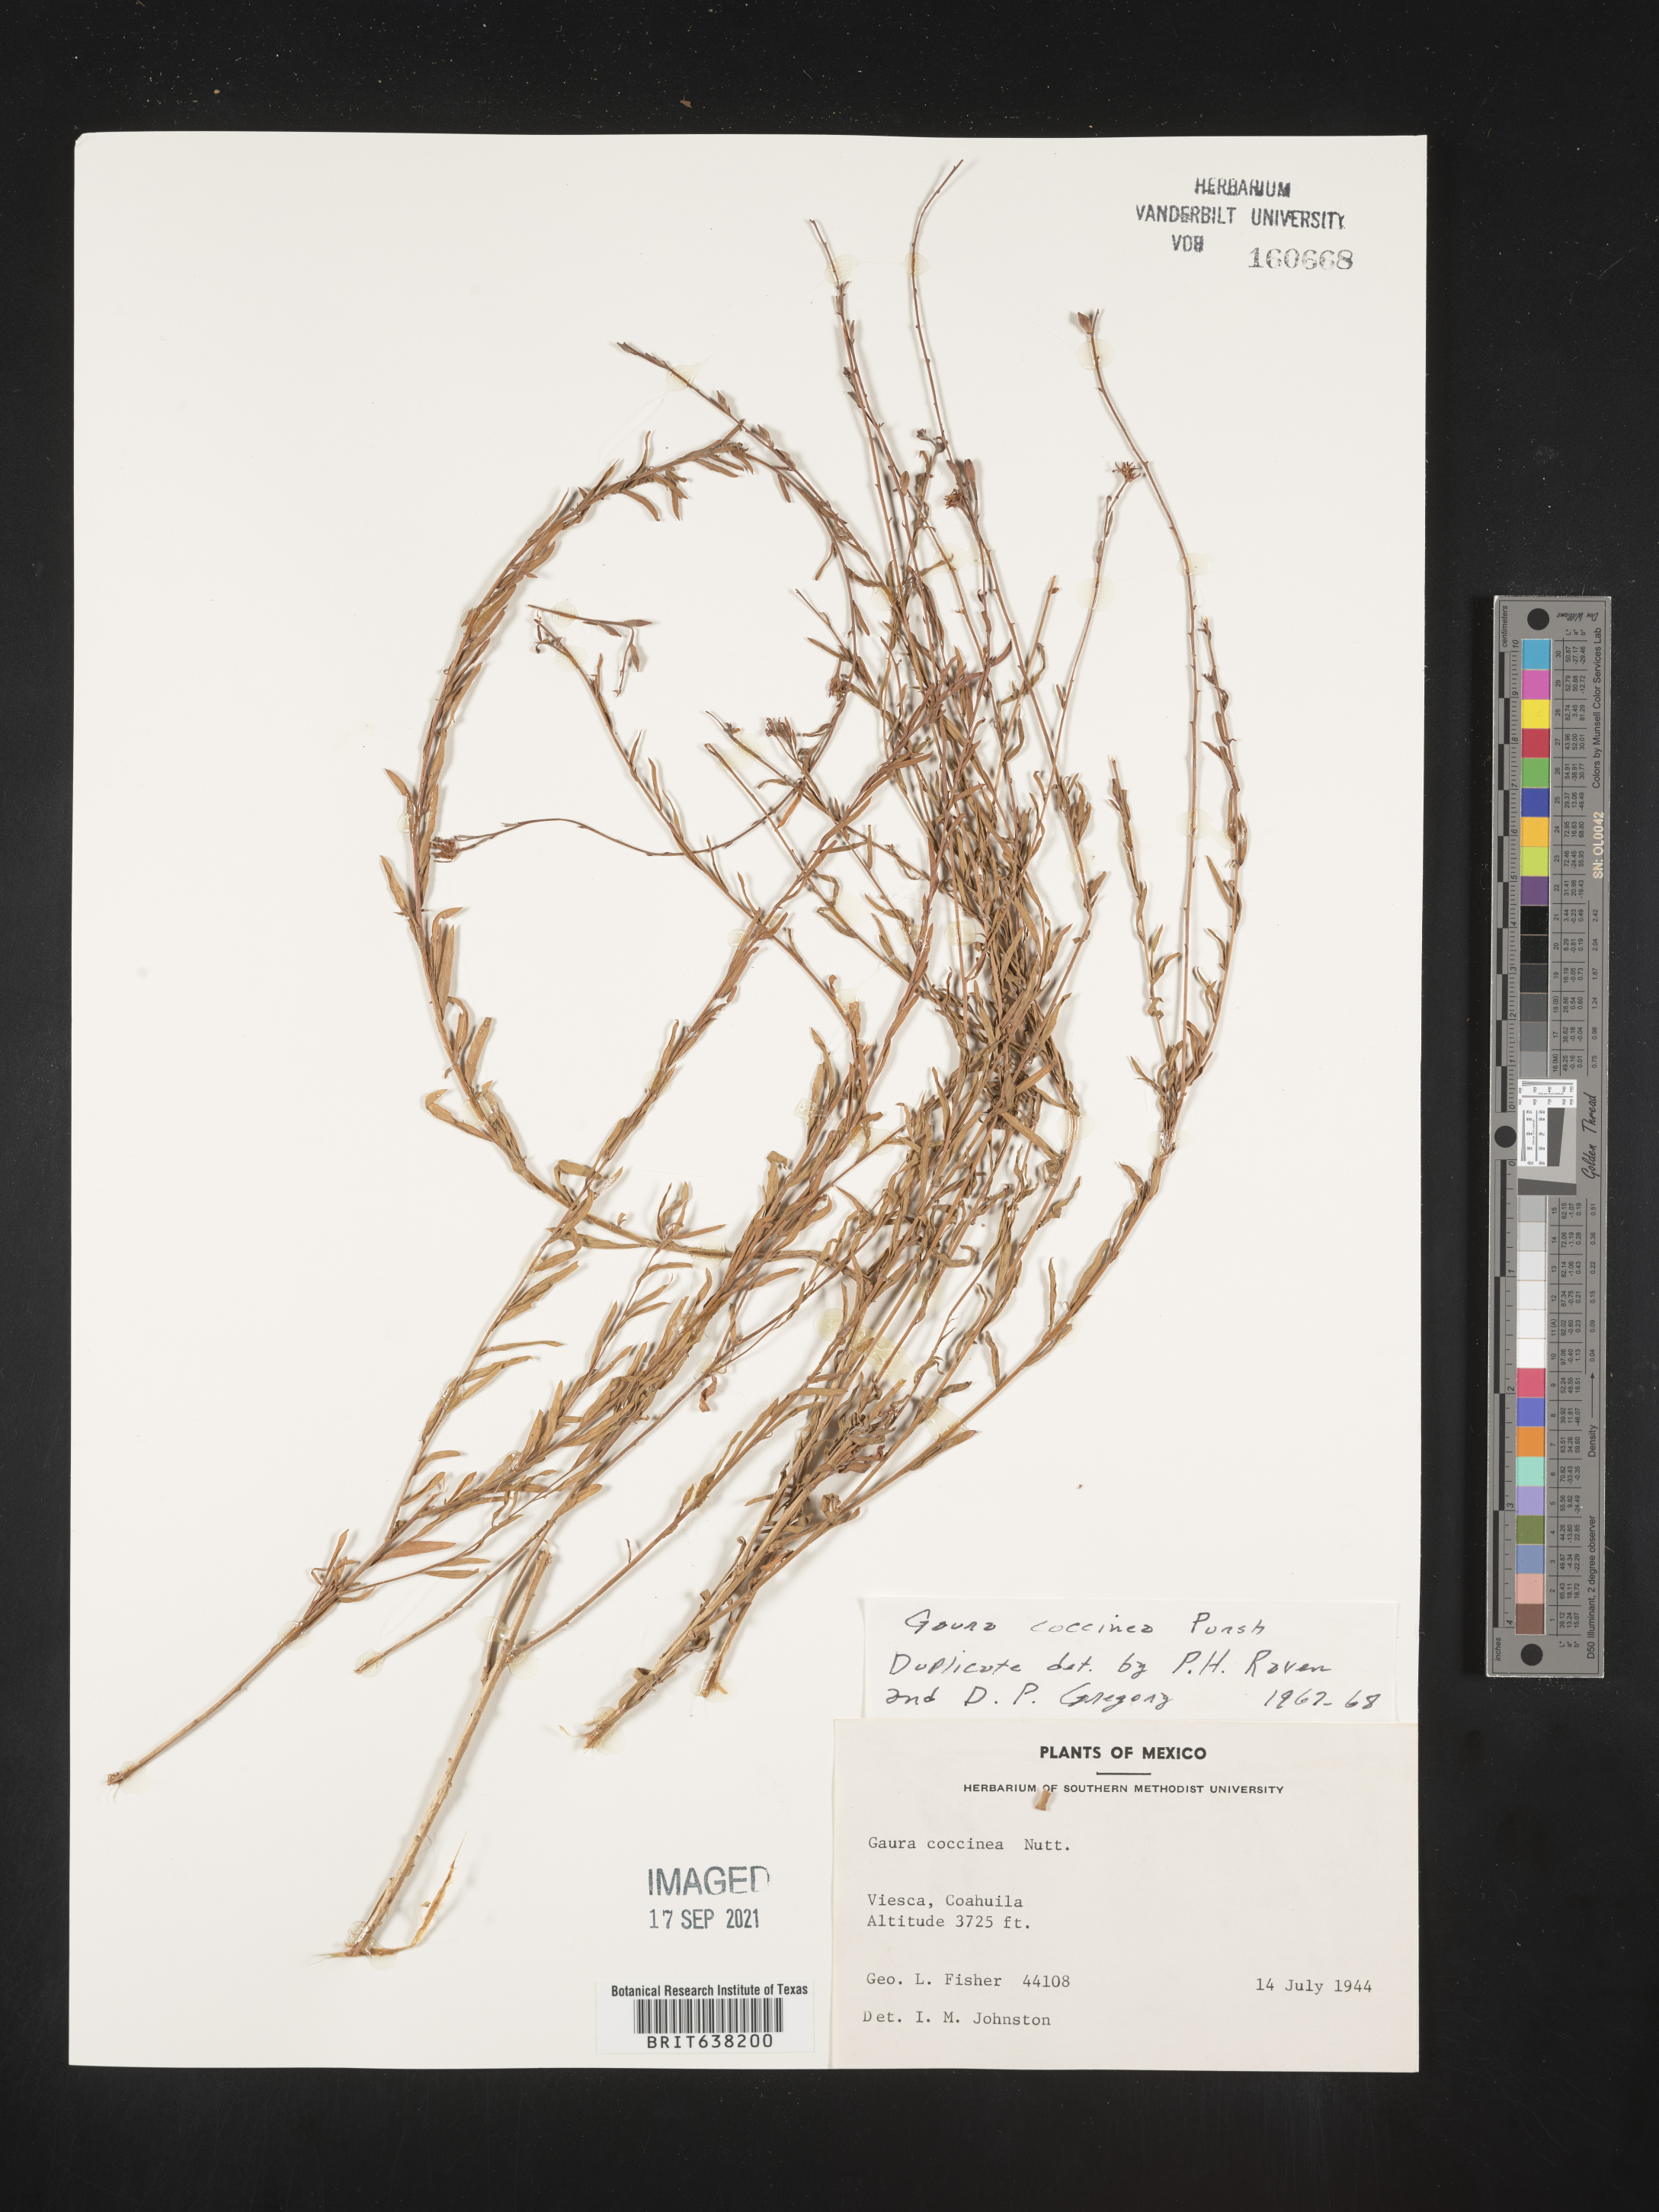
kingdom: Plantae
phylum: Tracheophyta
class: Magnoliopsida
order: Myrtales
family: Onagraceae
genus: Oenothera
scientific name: Oenothera
